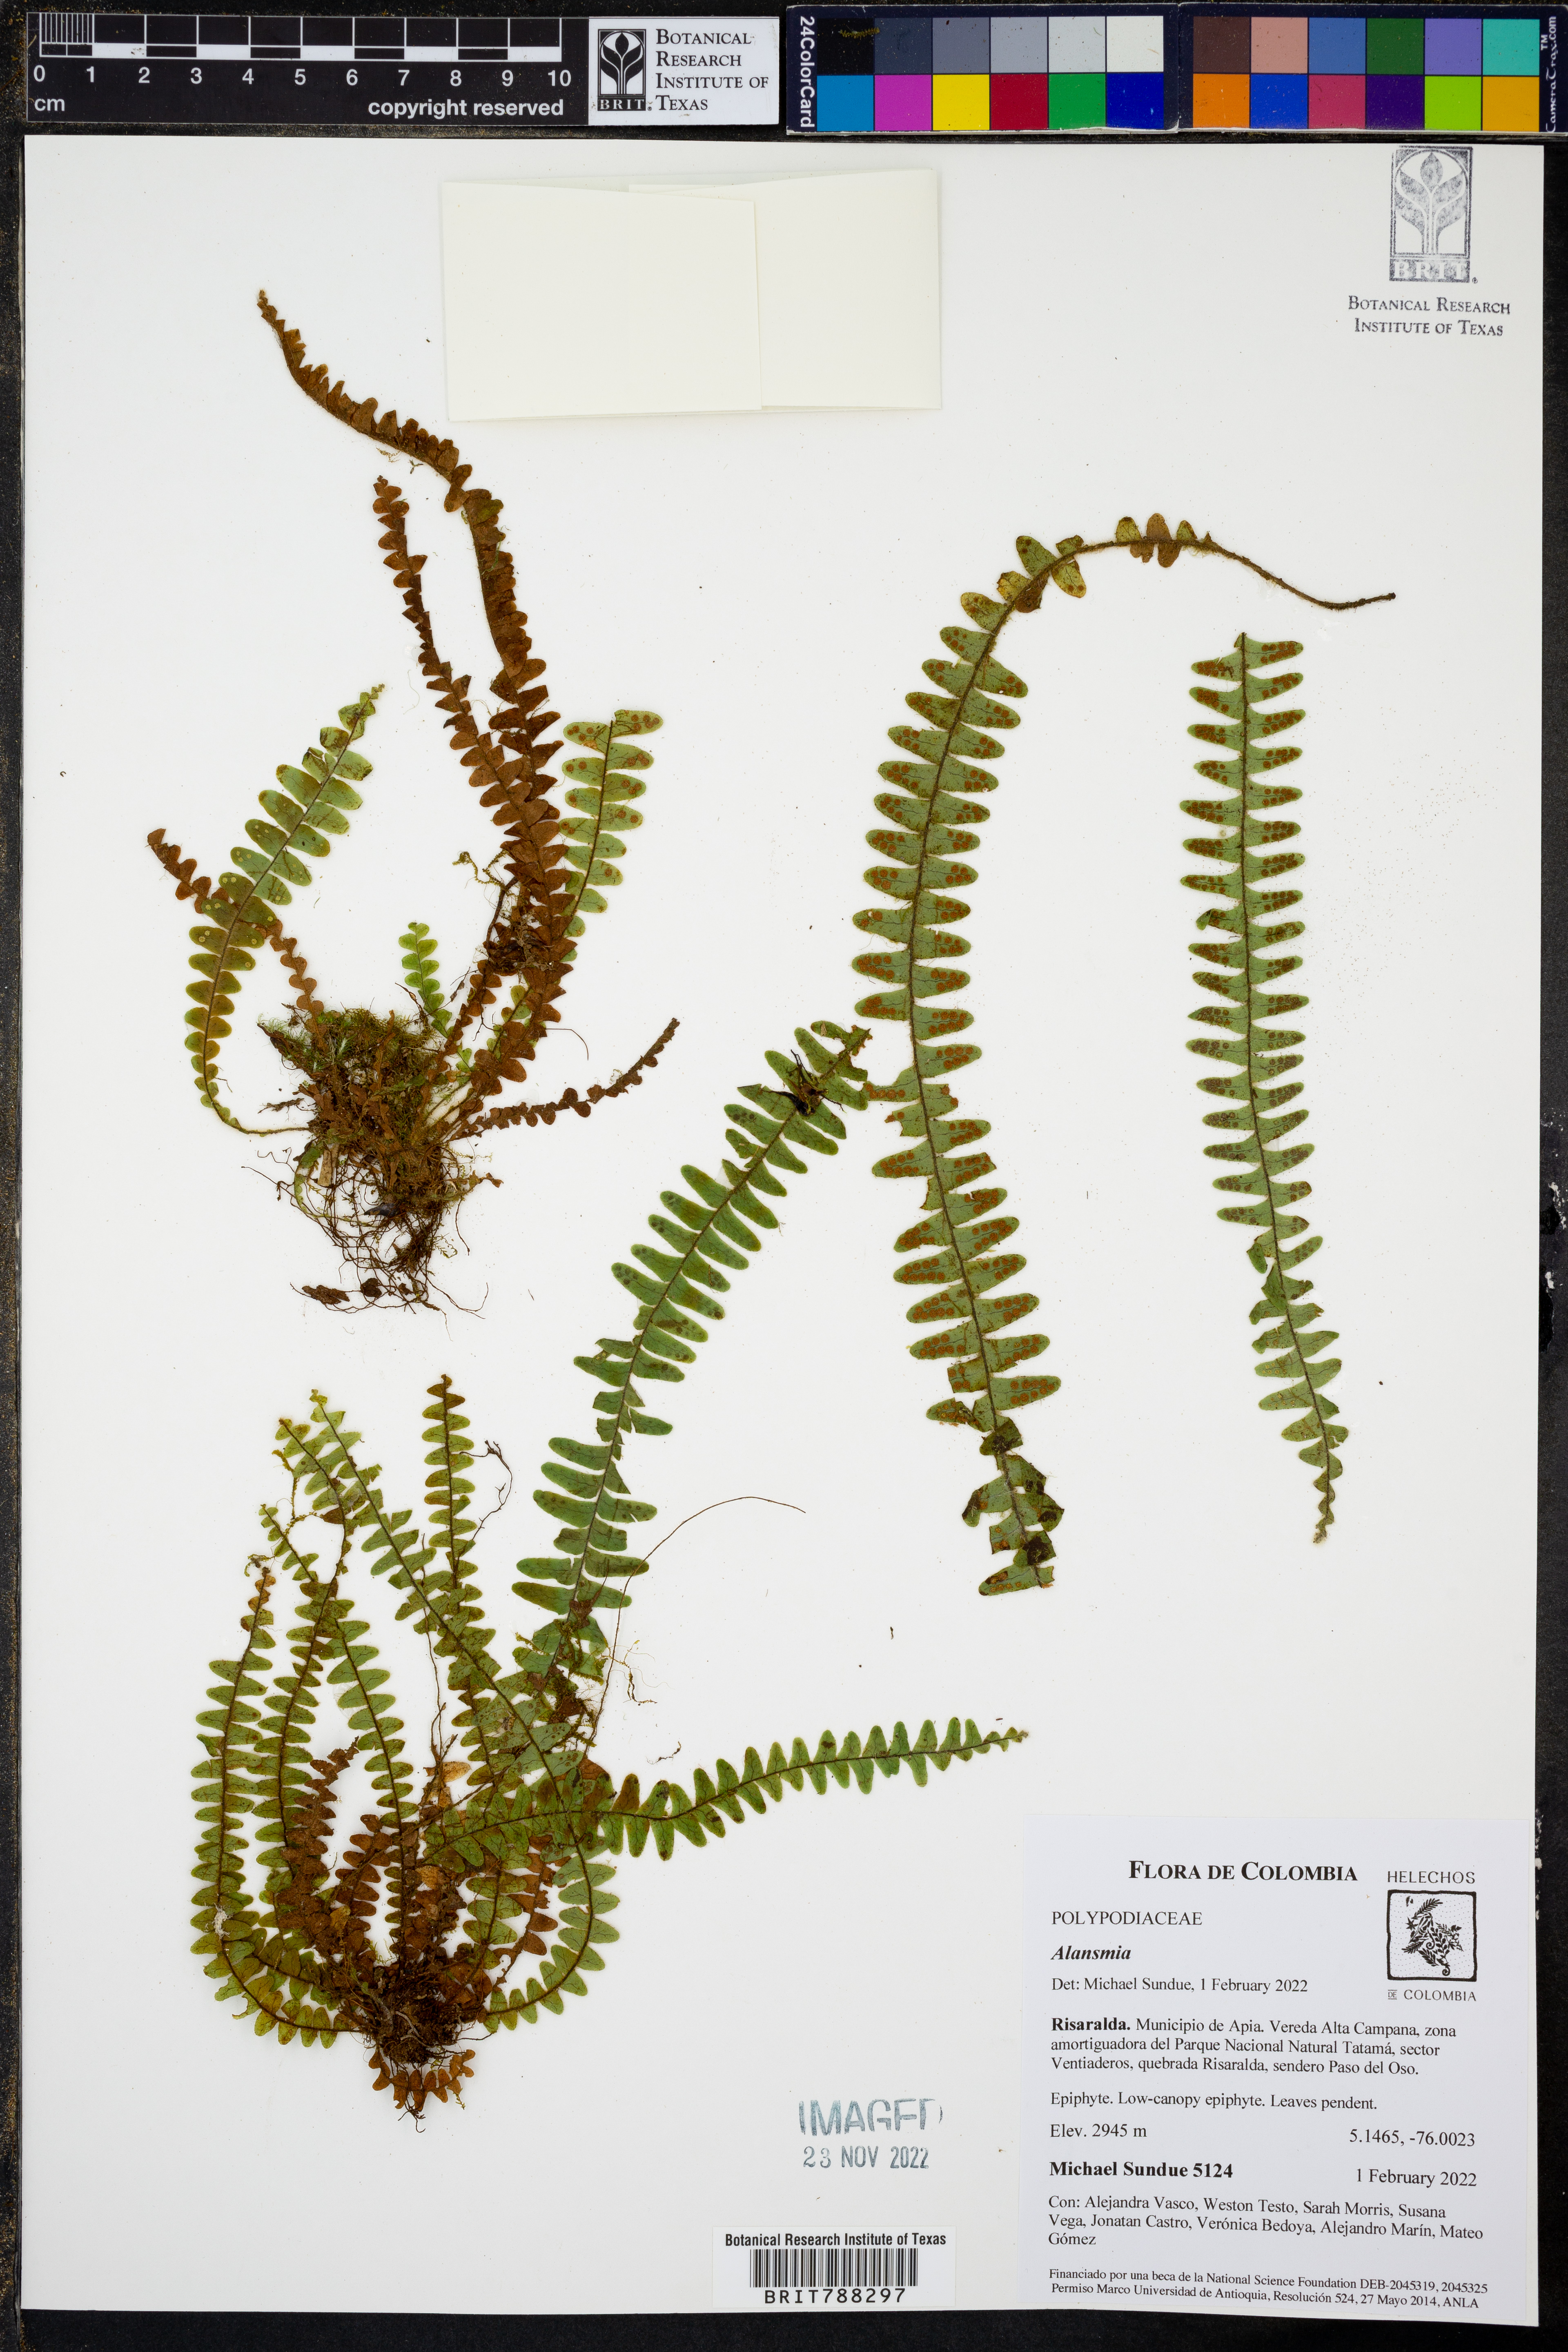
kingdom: Plantae
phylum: Tracheophyta
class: Polypodiopsida
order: Polypodiales
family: Polypodiaceae
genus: Alansmia
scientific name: Alansmia laxa
